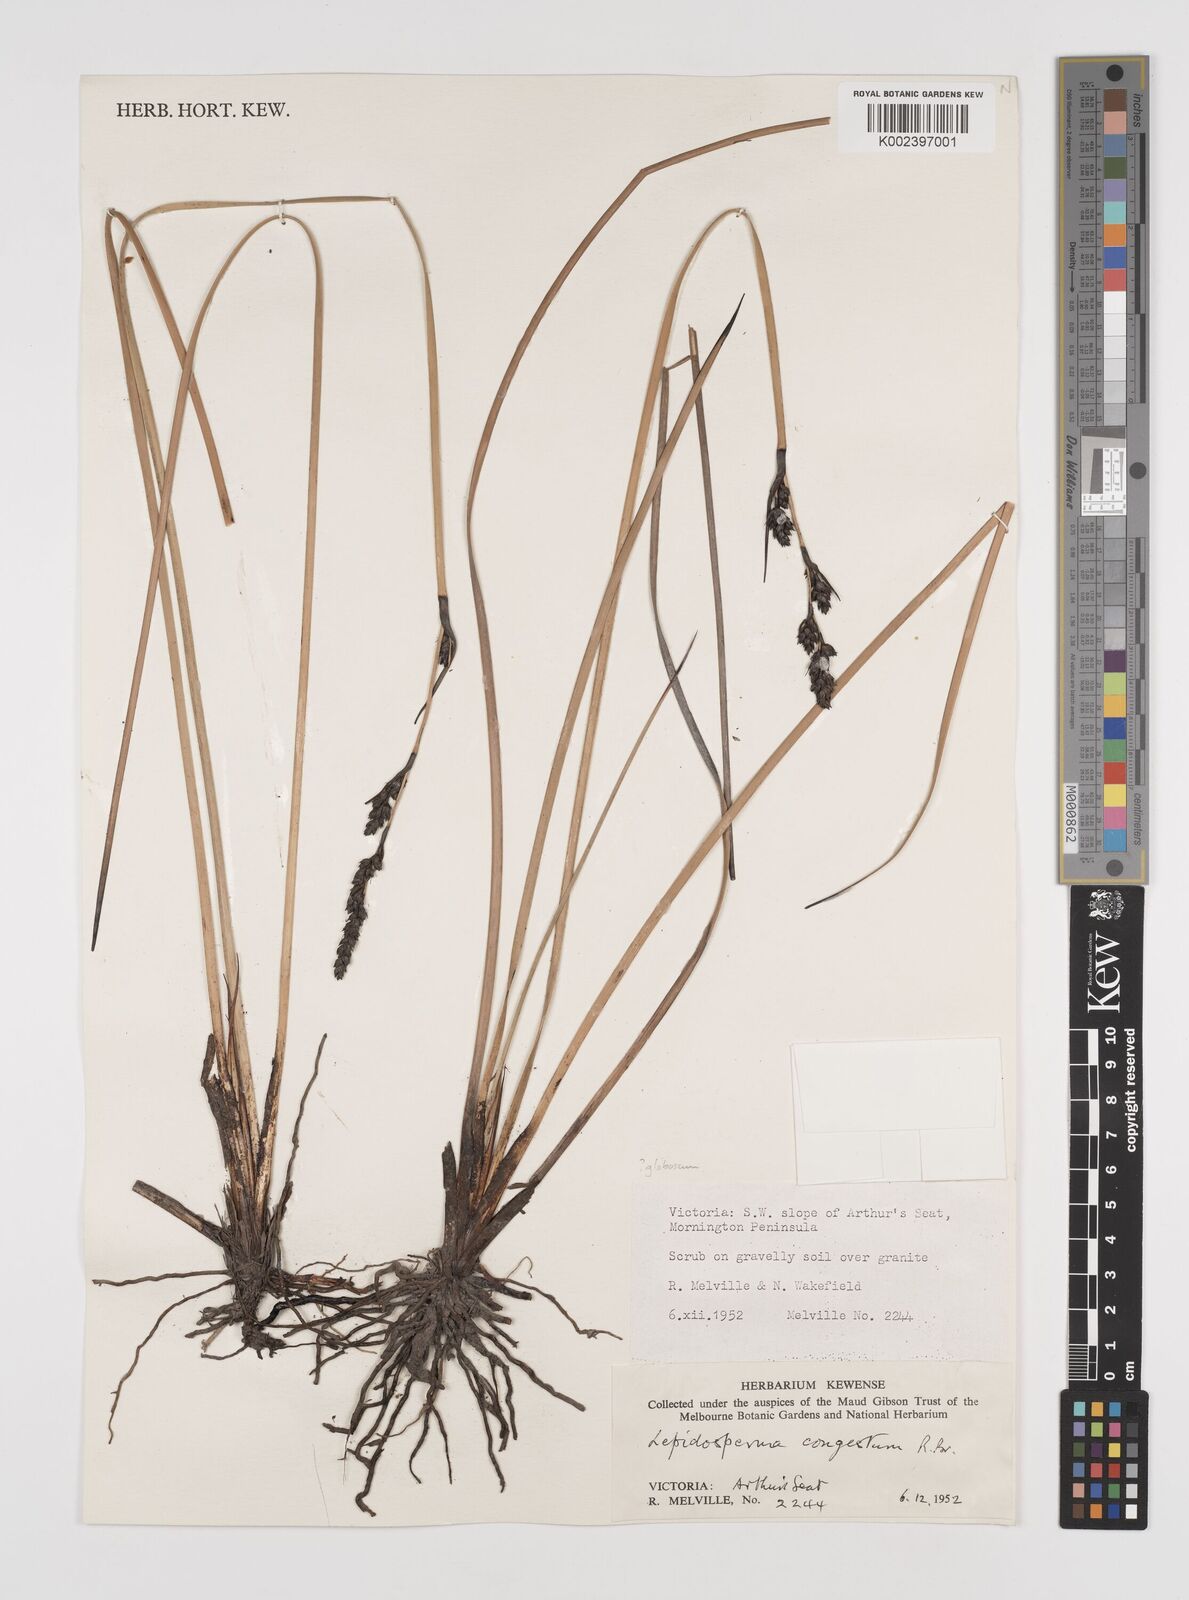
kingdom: Plantae
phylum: Tracheophyta
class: Liliopsida
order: Poales
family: Cyperaceae
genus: Lepidosperma
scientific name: Lepidosperma congestum
